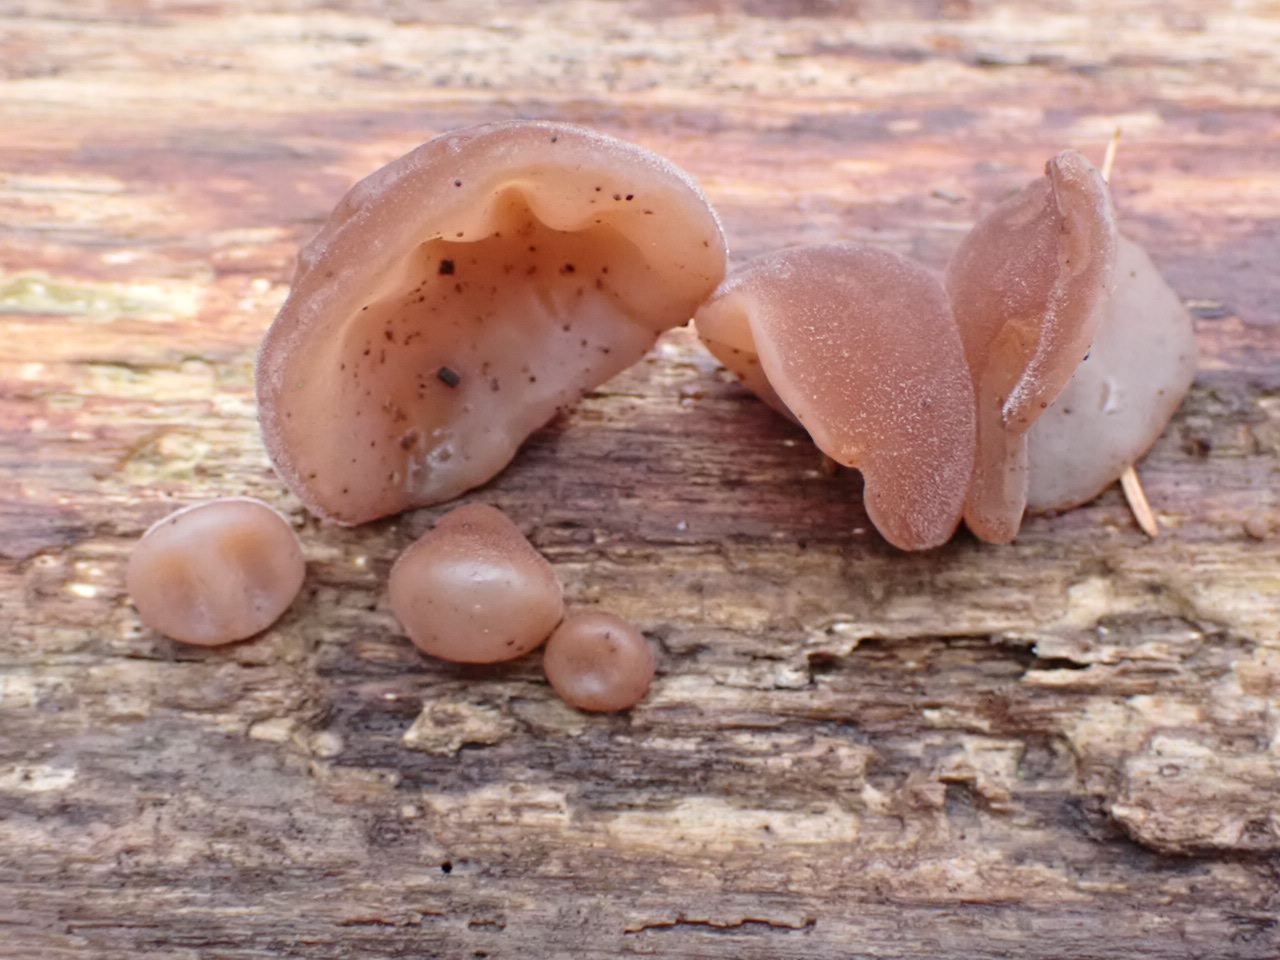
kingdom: Fungi
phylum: Basidiomycota
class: Agaricomycetes
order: Auriculariales
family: Auriculariaceae
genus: Auricularia
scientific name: Auricularia auricula-judae
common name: almindelig judasøre
